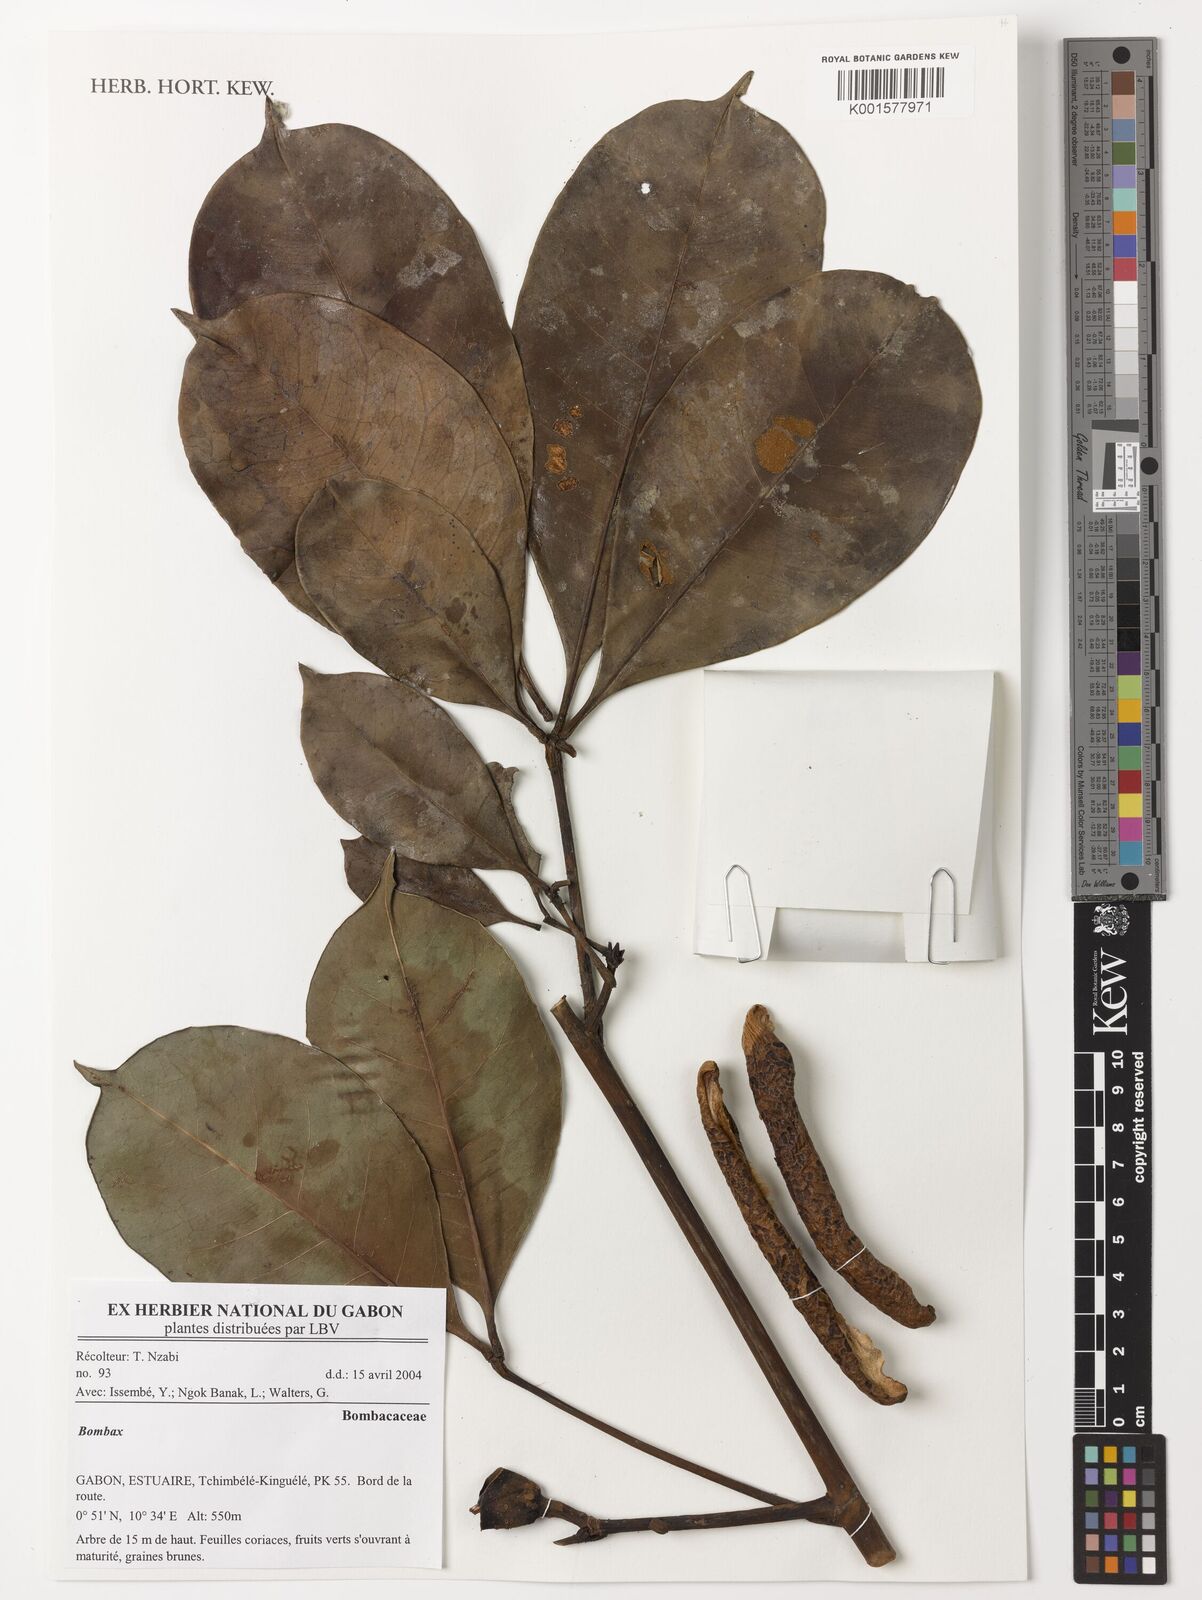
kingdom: Plantae
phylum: Tracheophyta
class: Magnoliopsida
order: Malvales
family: Malvaceae
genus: Bombax
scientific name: Bombax
